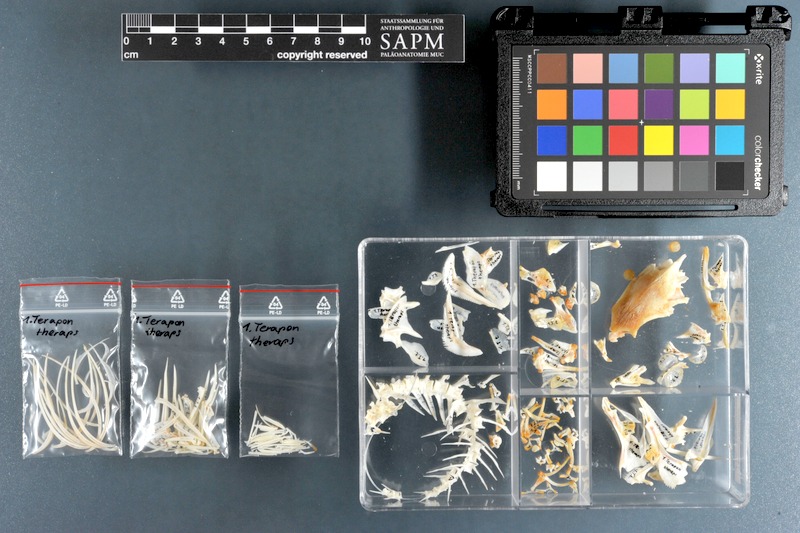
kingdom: Animalia
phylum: Chordata
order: Perciformes
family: Terapontidae
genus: Terapon
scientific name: Terapon theraps
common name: Largescaled therapon
